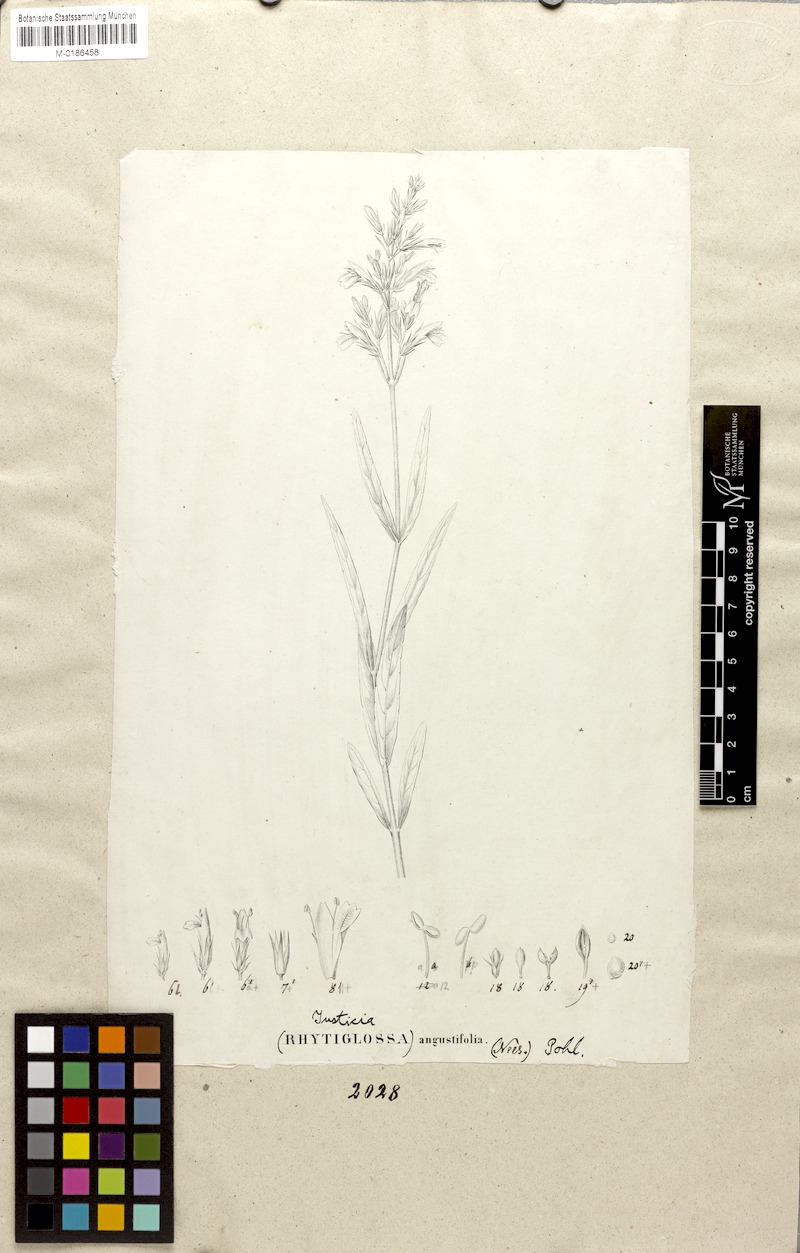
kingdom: Plantae
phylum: Tracheophyta
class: Magnoliopsida
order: Lamiales
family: Acanthaceae
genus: Dianthera
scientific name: Dianthera angustifolia
